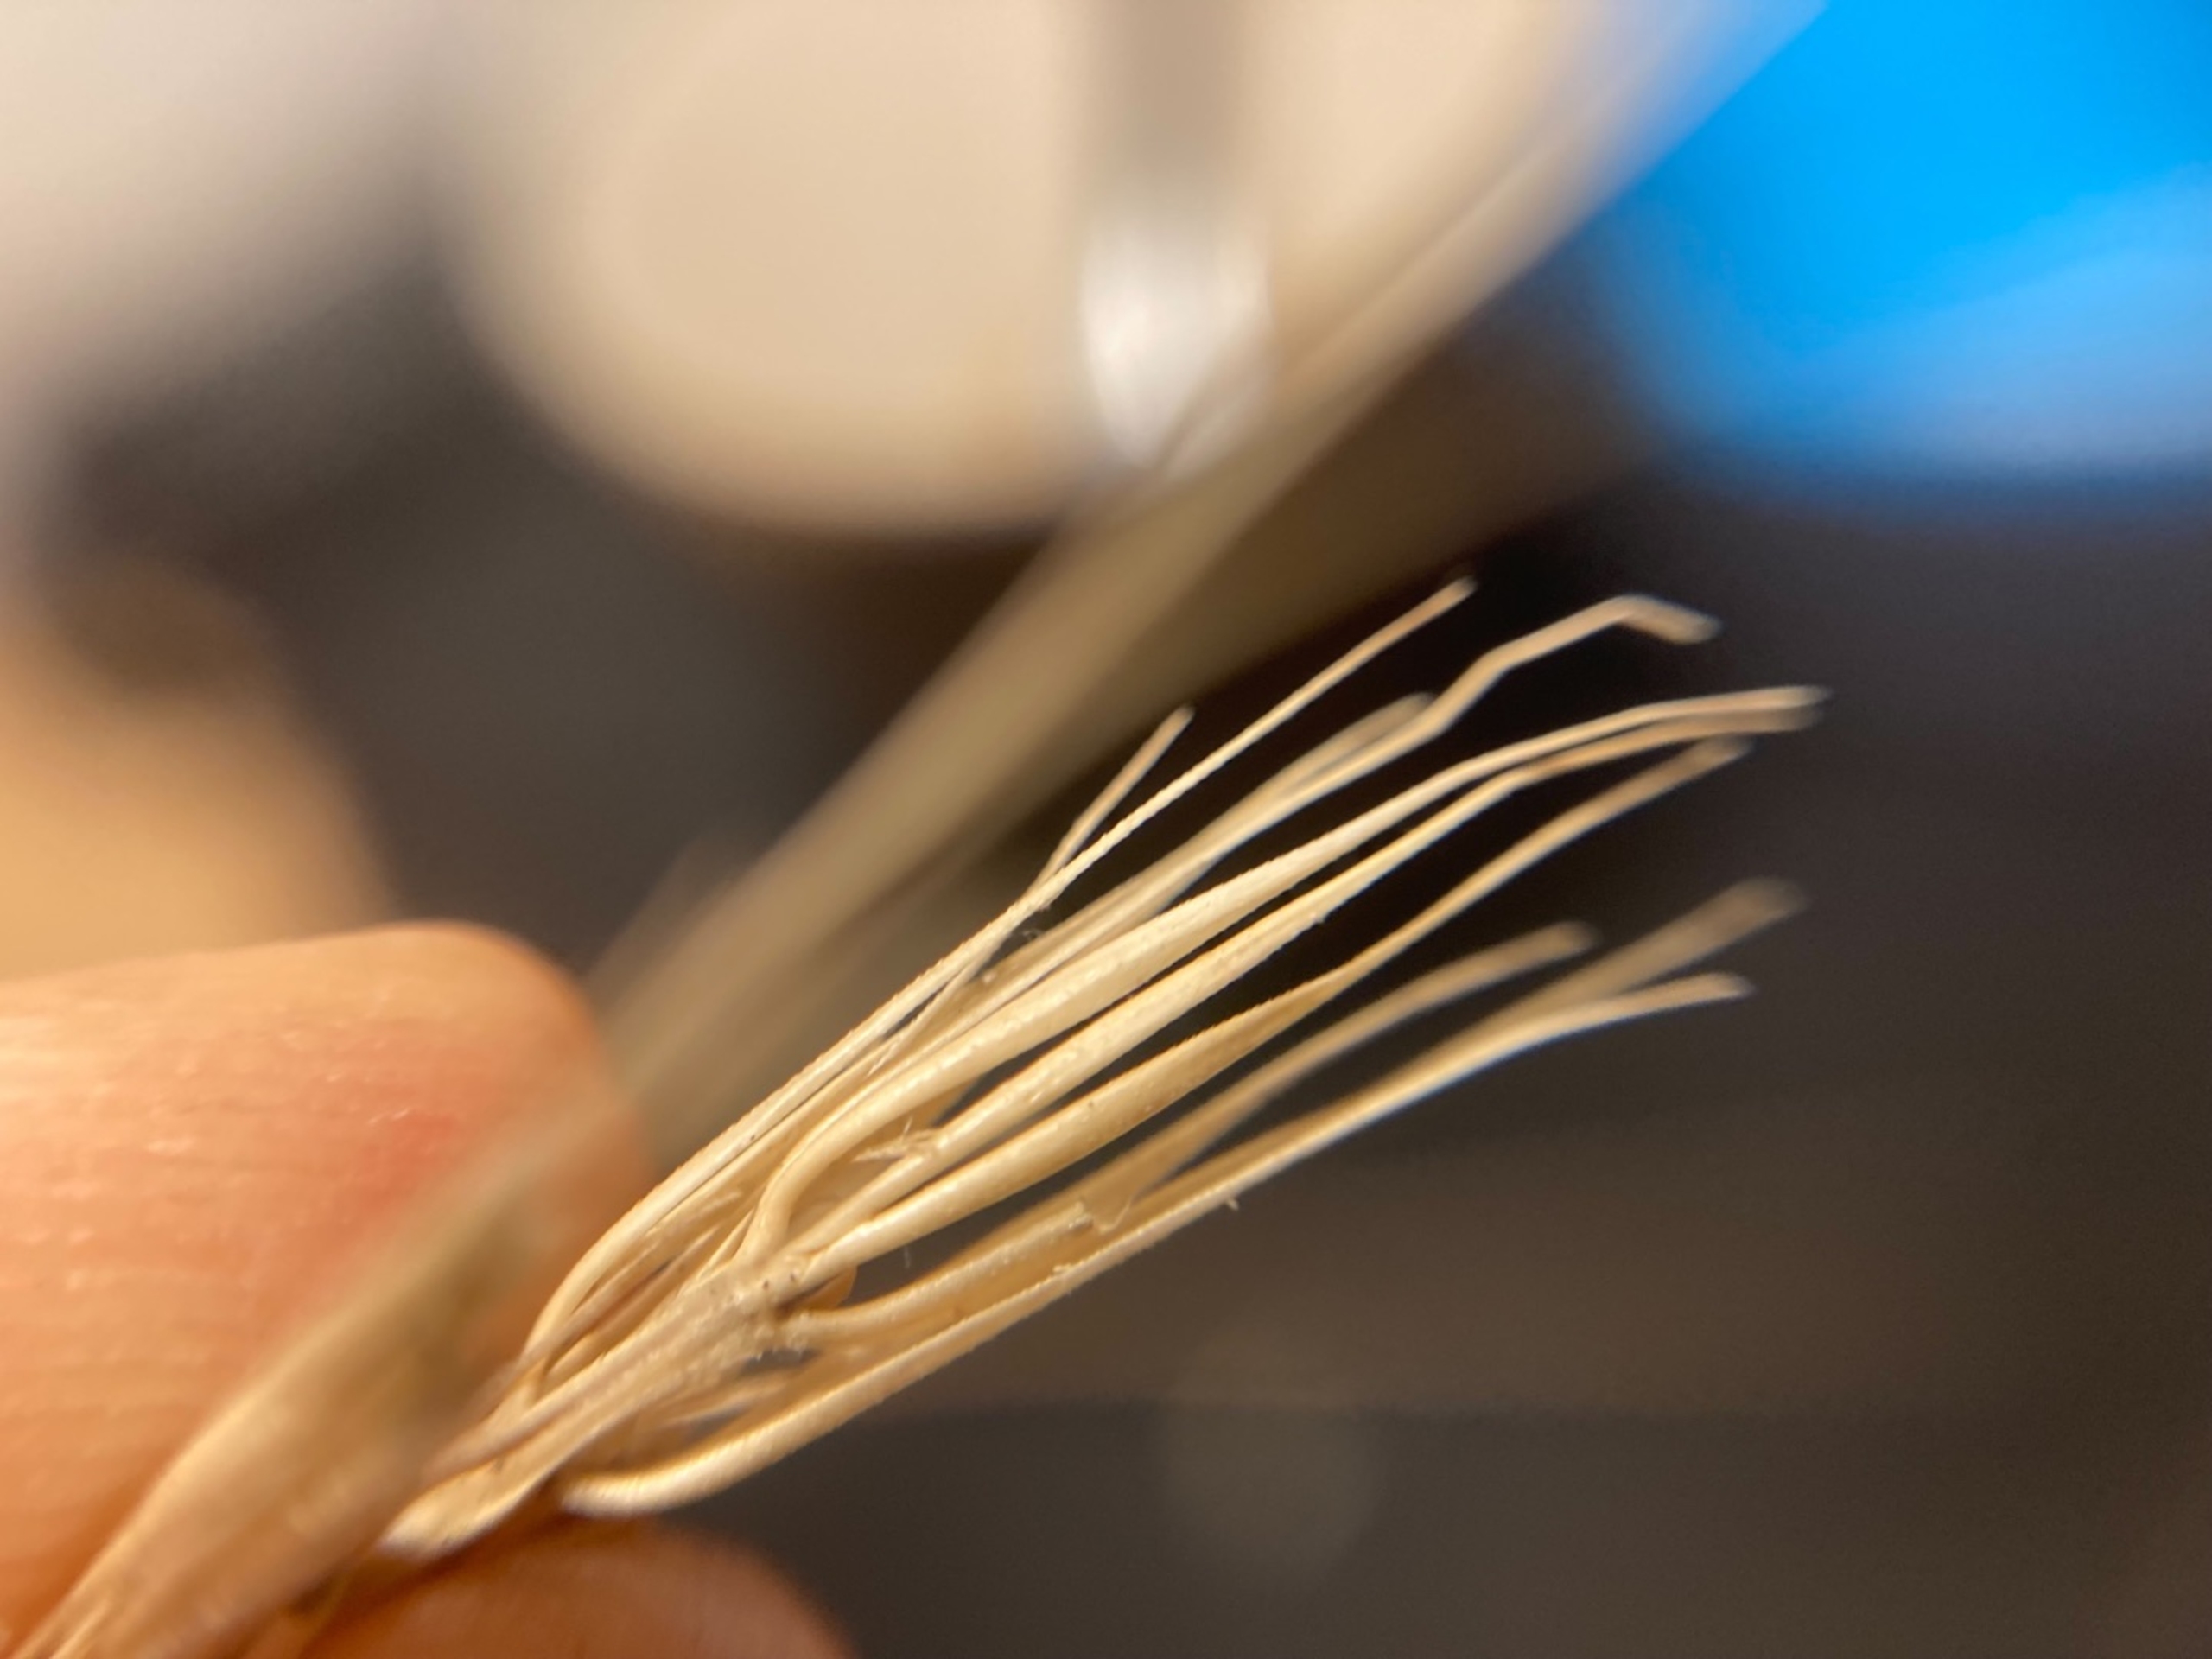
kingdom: Plantae
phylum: Tracheophyta
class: Liliopsida
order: Poales
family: Poaceae
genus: Hordelymus
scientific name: Hordelymus europaeus
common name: Skovbyg
